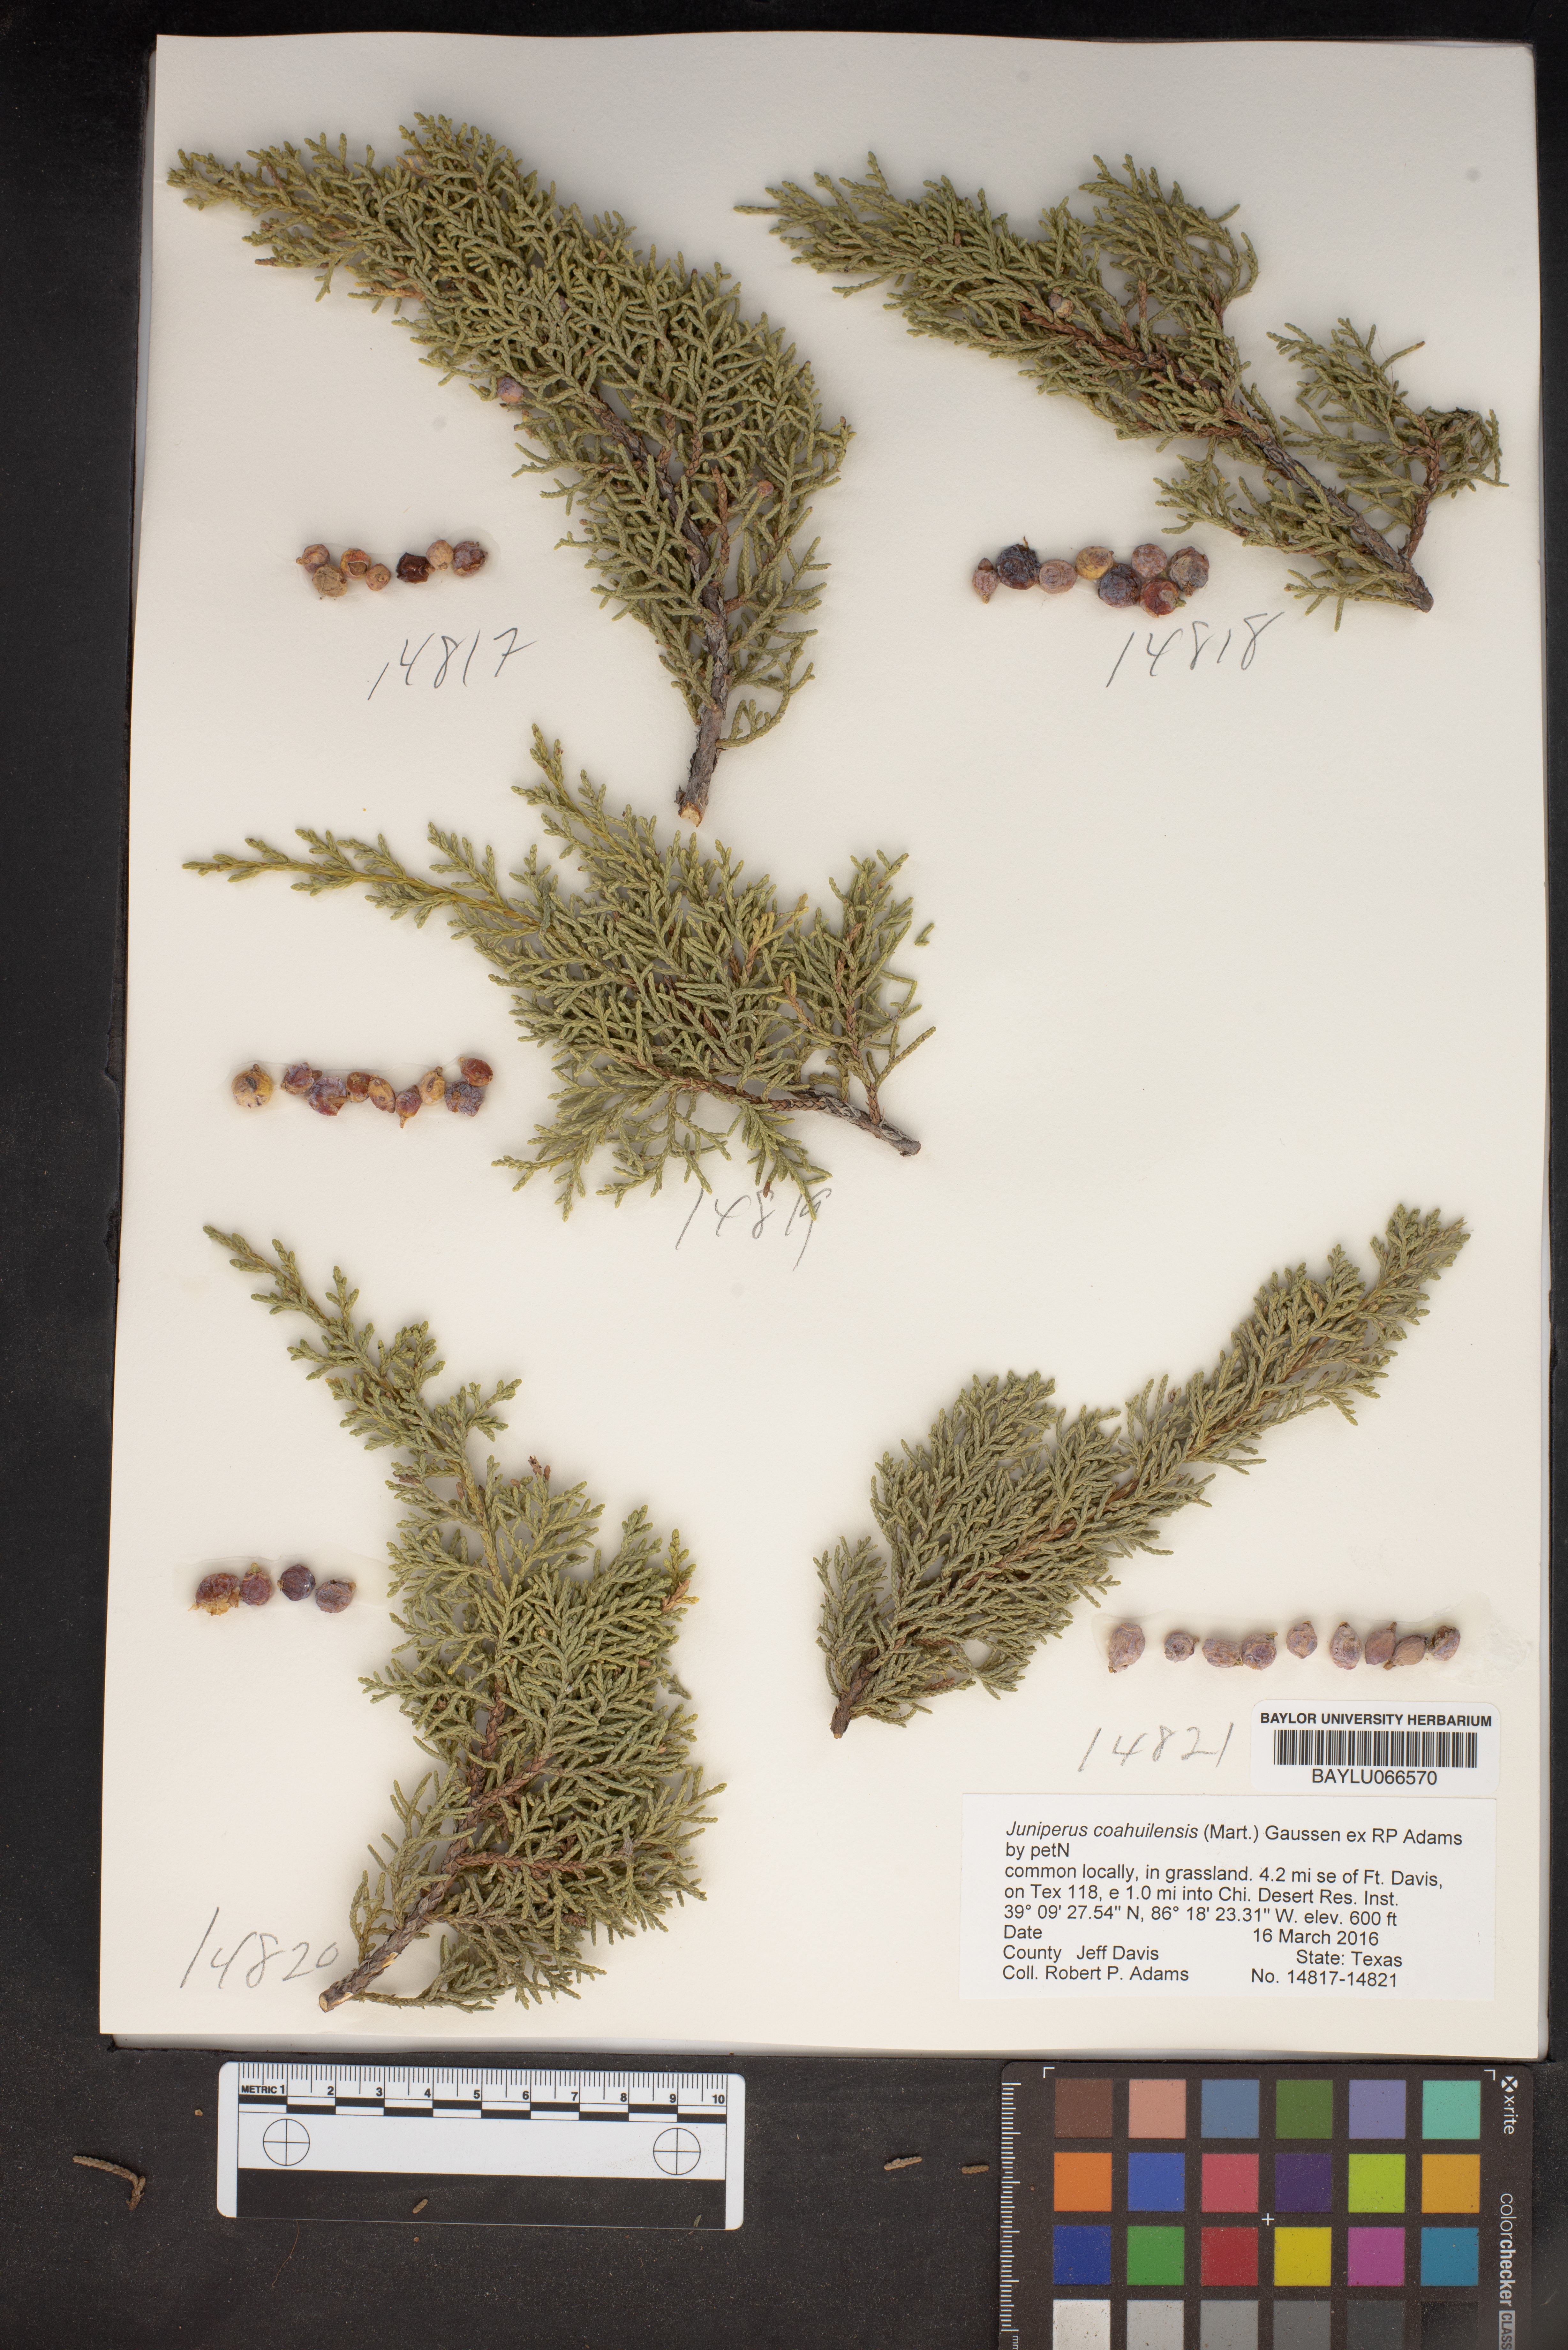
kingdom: Plantae
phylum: Tracheophyta
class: Pinopsida
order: Pinales
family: Cupressaceae
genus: Juniperus
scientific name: Juniperus coahuilensis
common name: Roseberry
